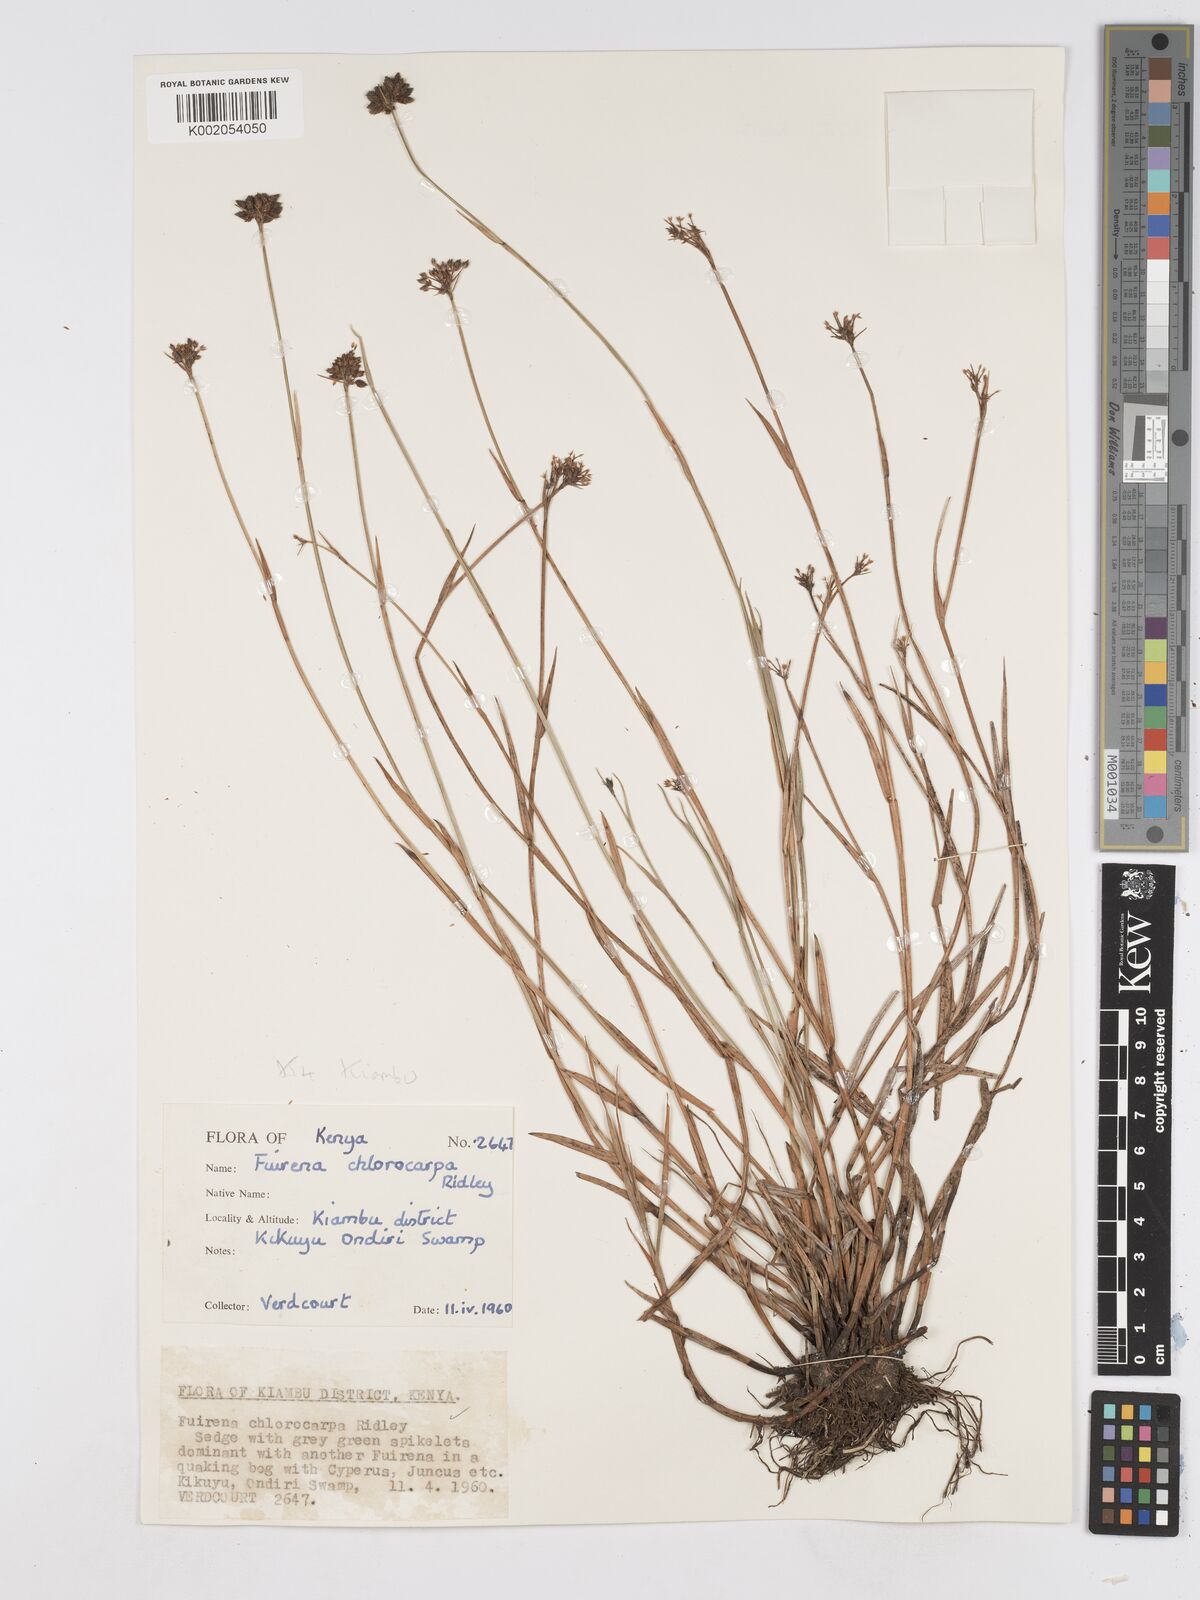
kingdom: Plantae
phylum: Tracheophyta
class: Liliopsida
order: Poales
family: Cyperaceae
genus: Fuirena
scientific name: Fuirena stricta
